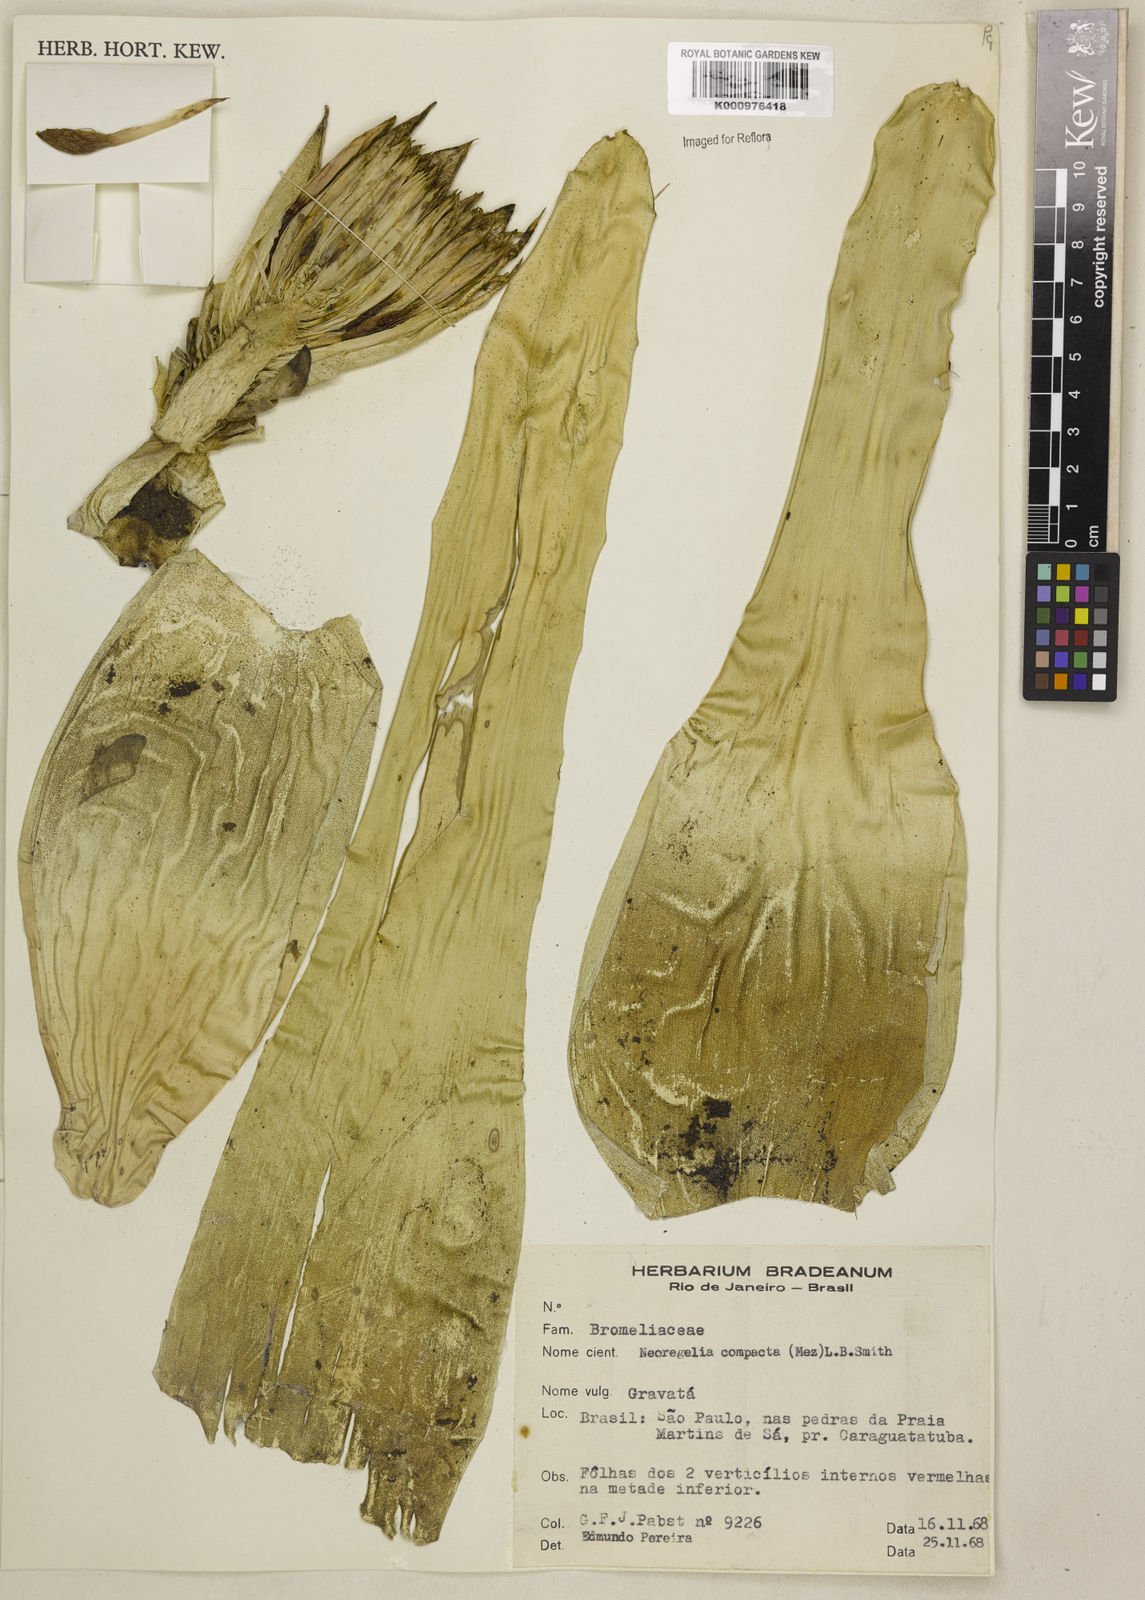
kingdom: Plantae
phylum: Tracheophyta
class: Liliopsida
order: Poales
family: Bromeliaceae
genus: Neoregelia
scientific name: Neoregelia compacta
